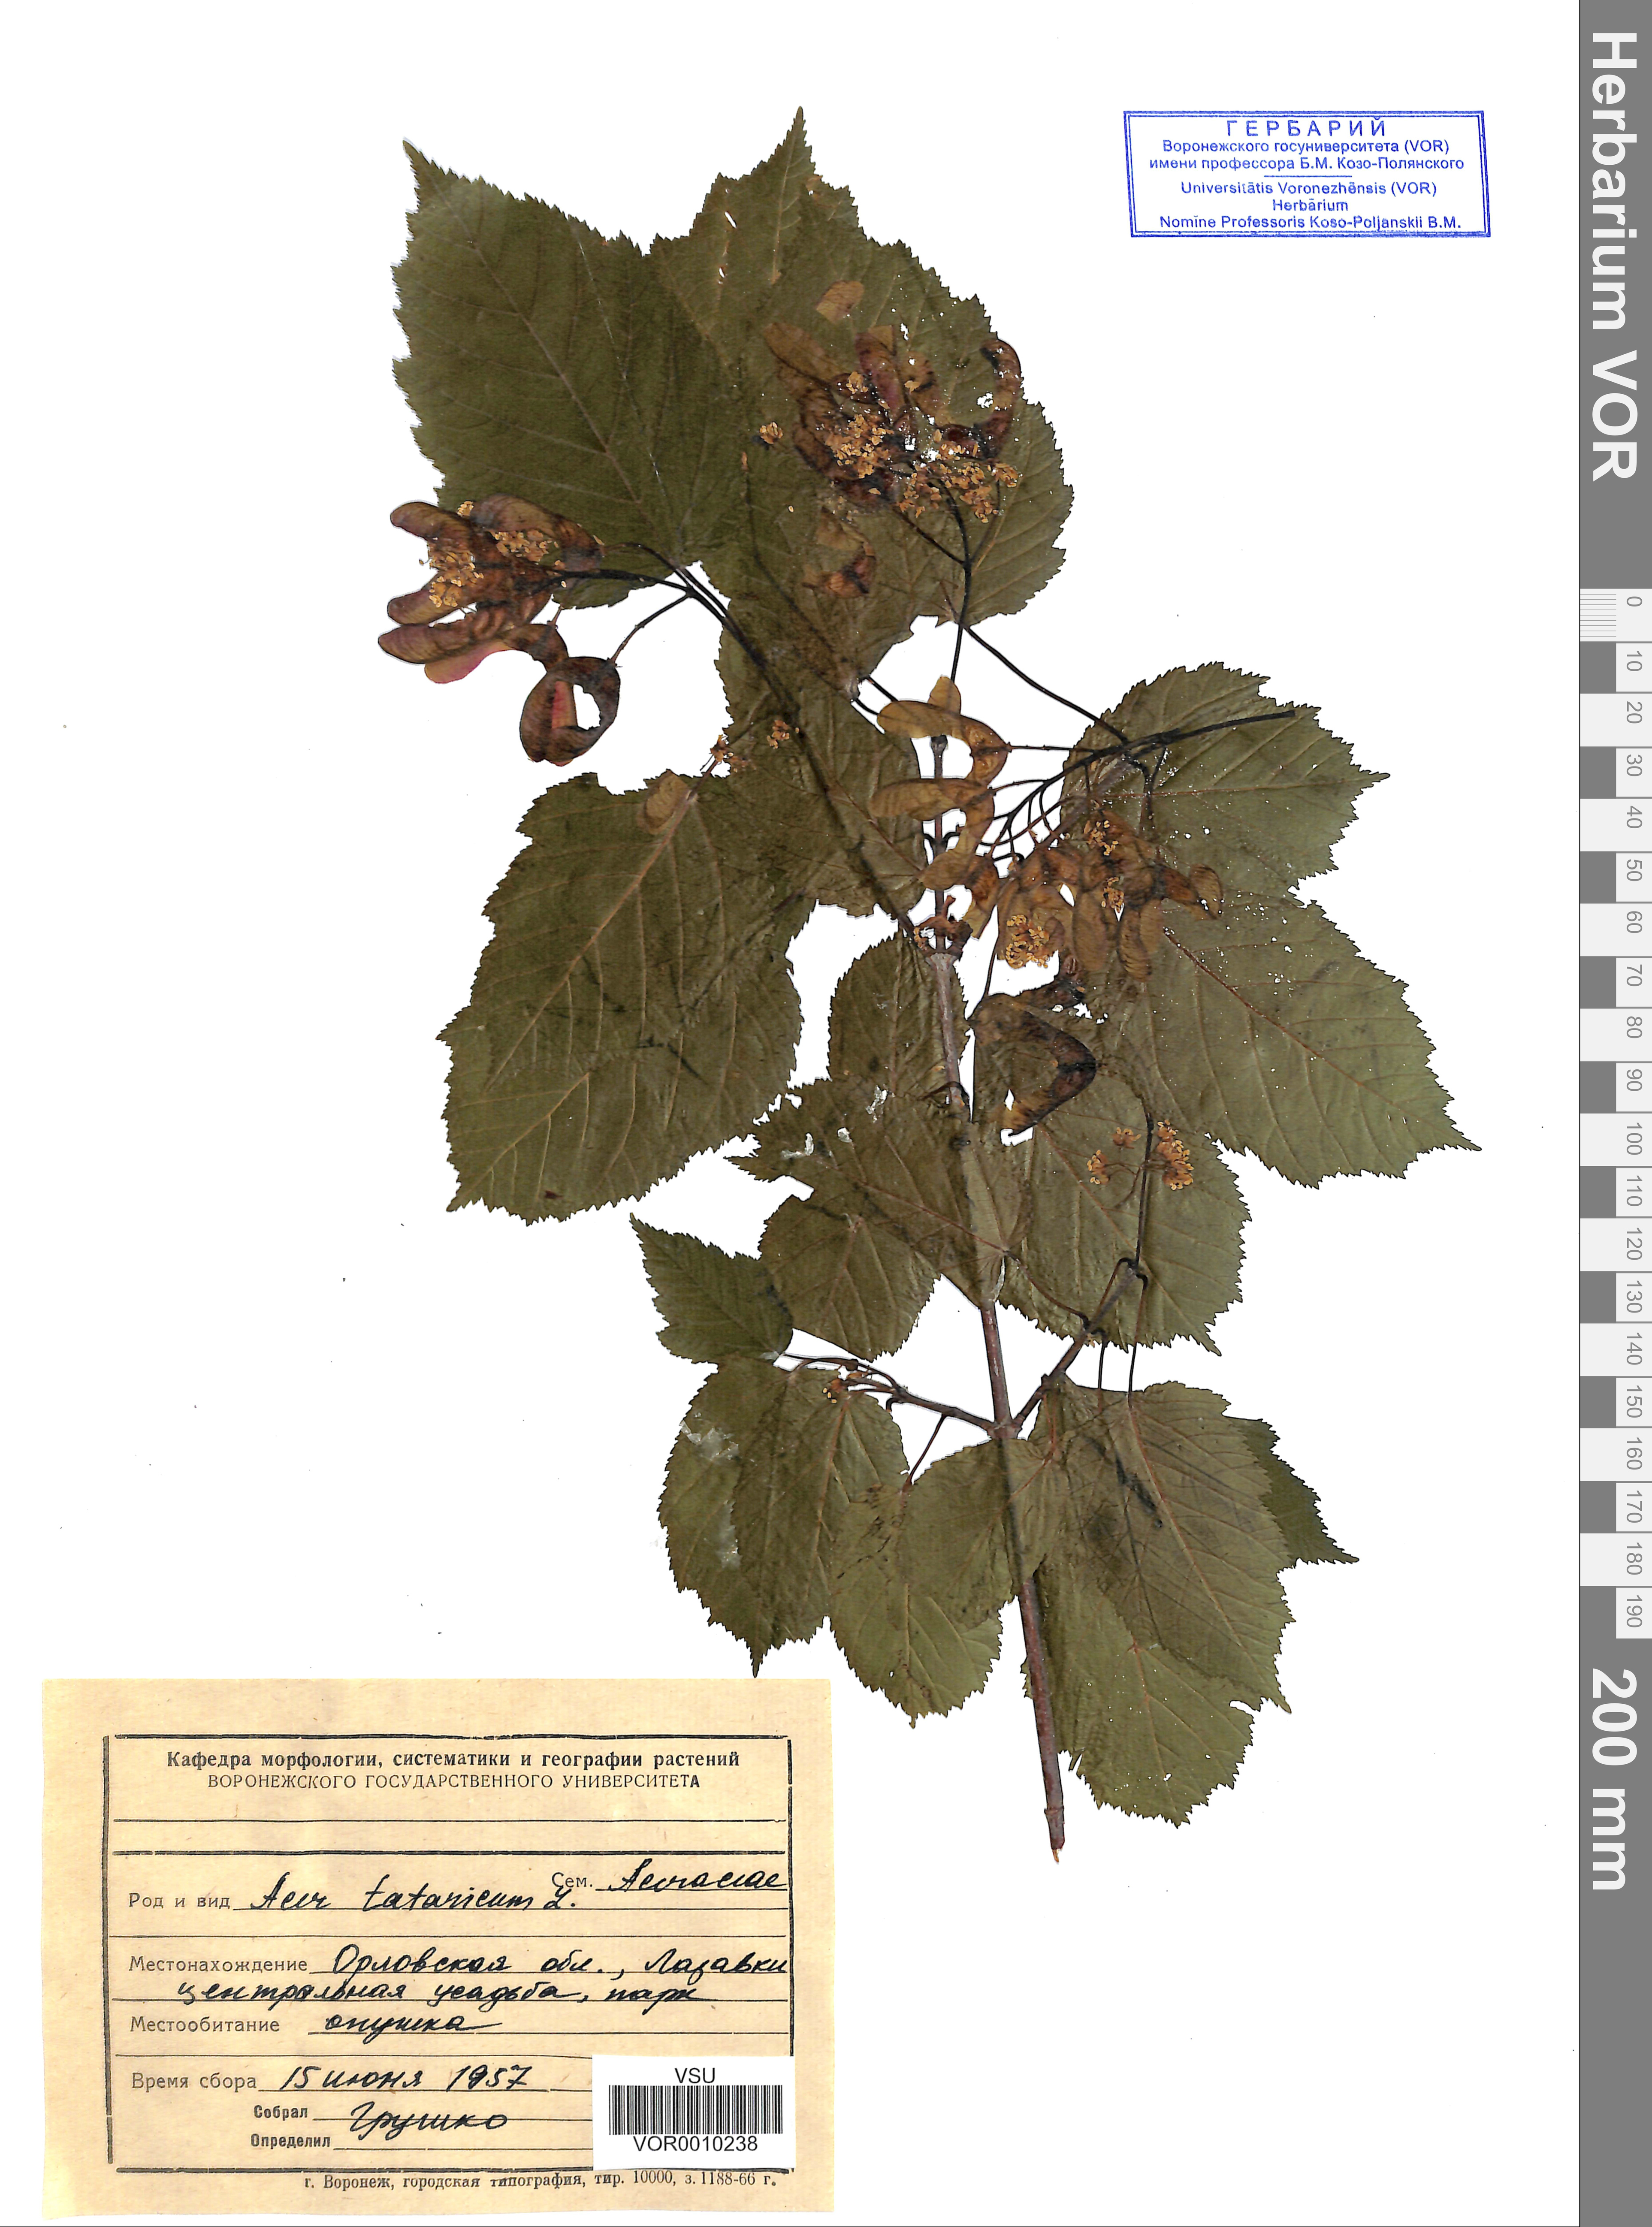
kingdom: Plantae
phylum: Tracheophyta
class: Magnoliopsida
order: Sapindales
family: Sapindaceae
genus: Acer
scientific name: Acer tataricum
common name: Tartar maple
